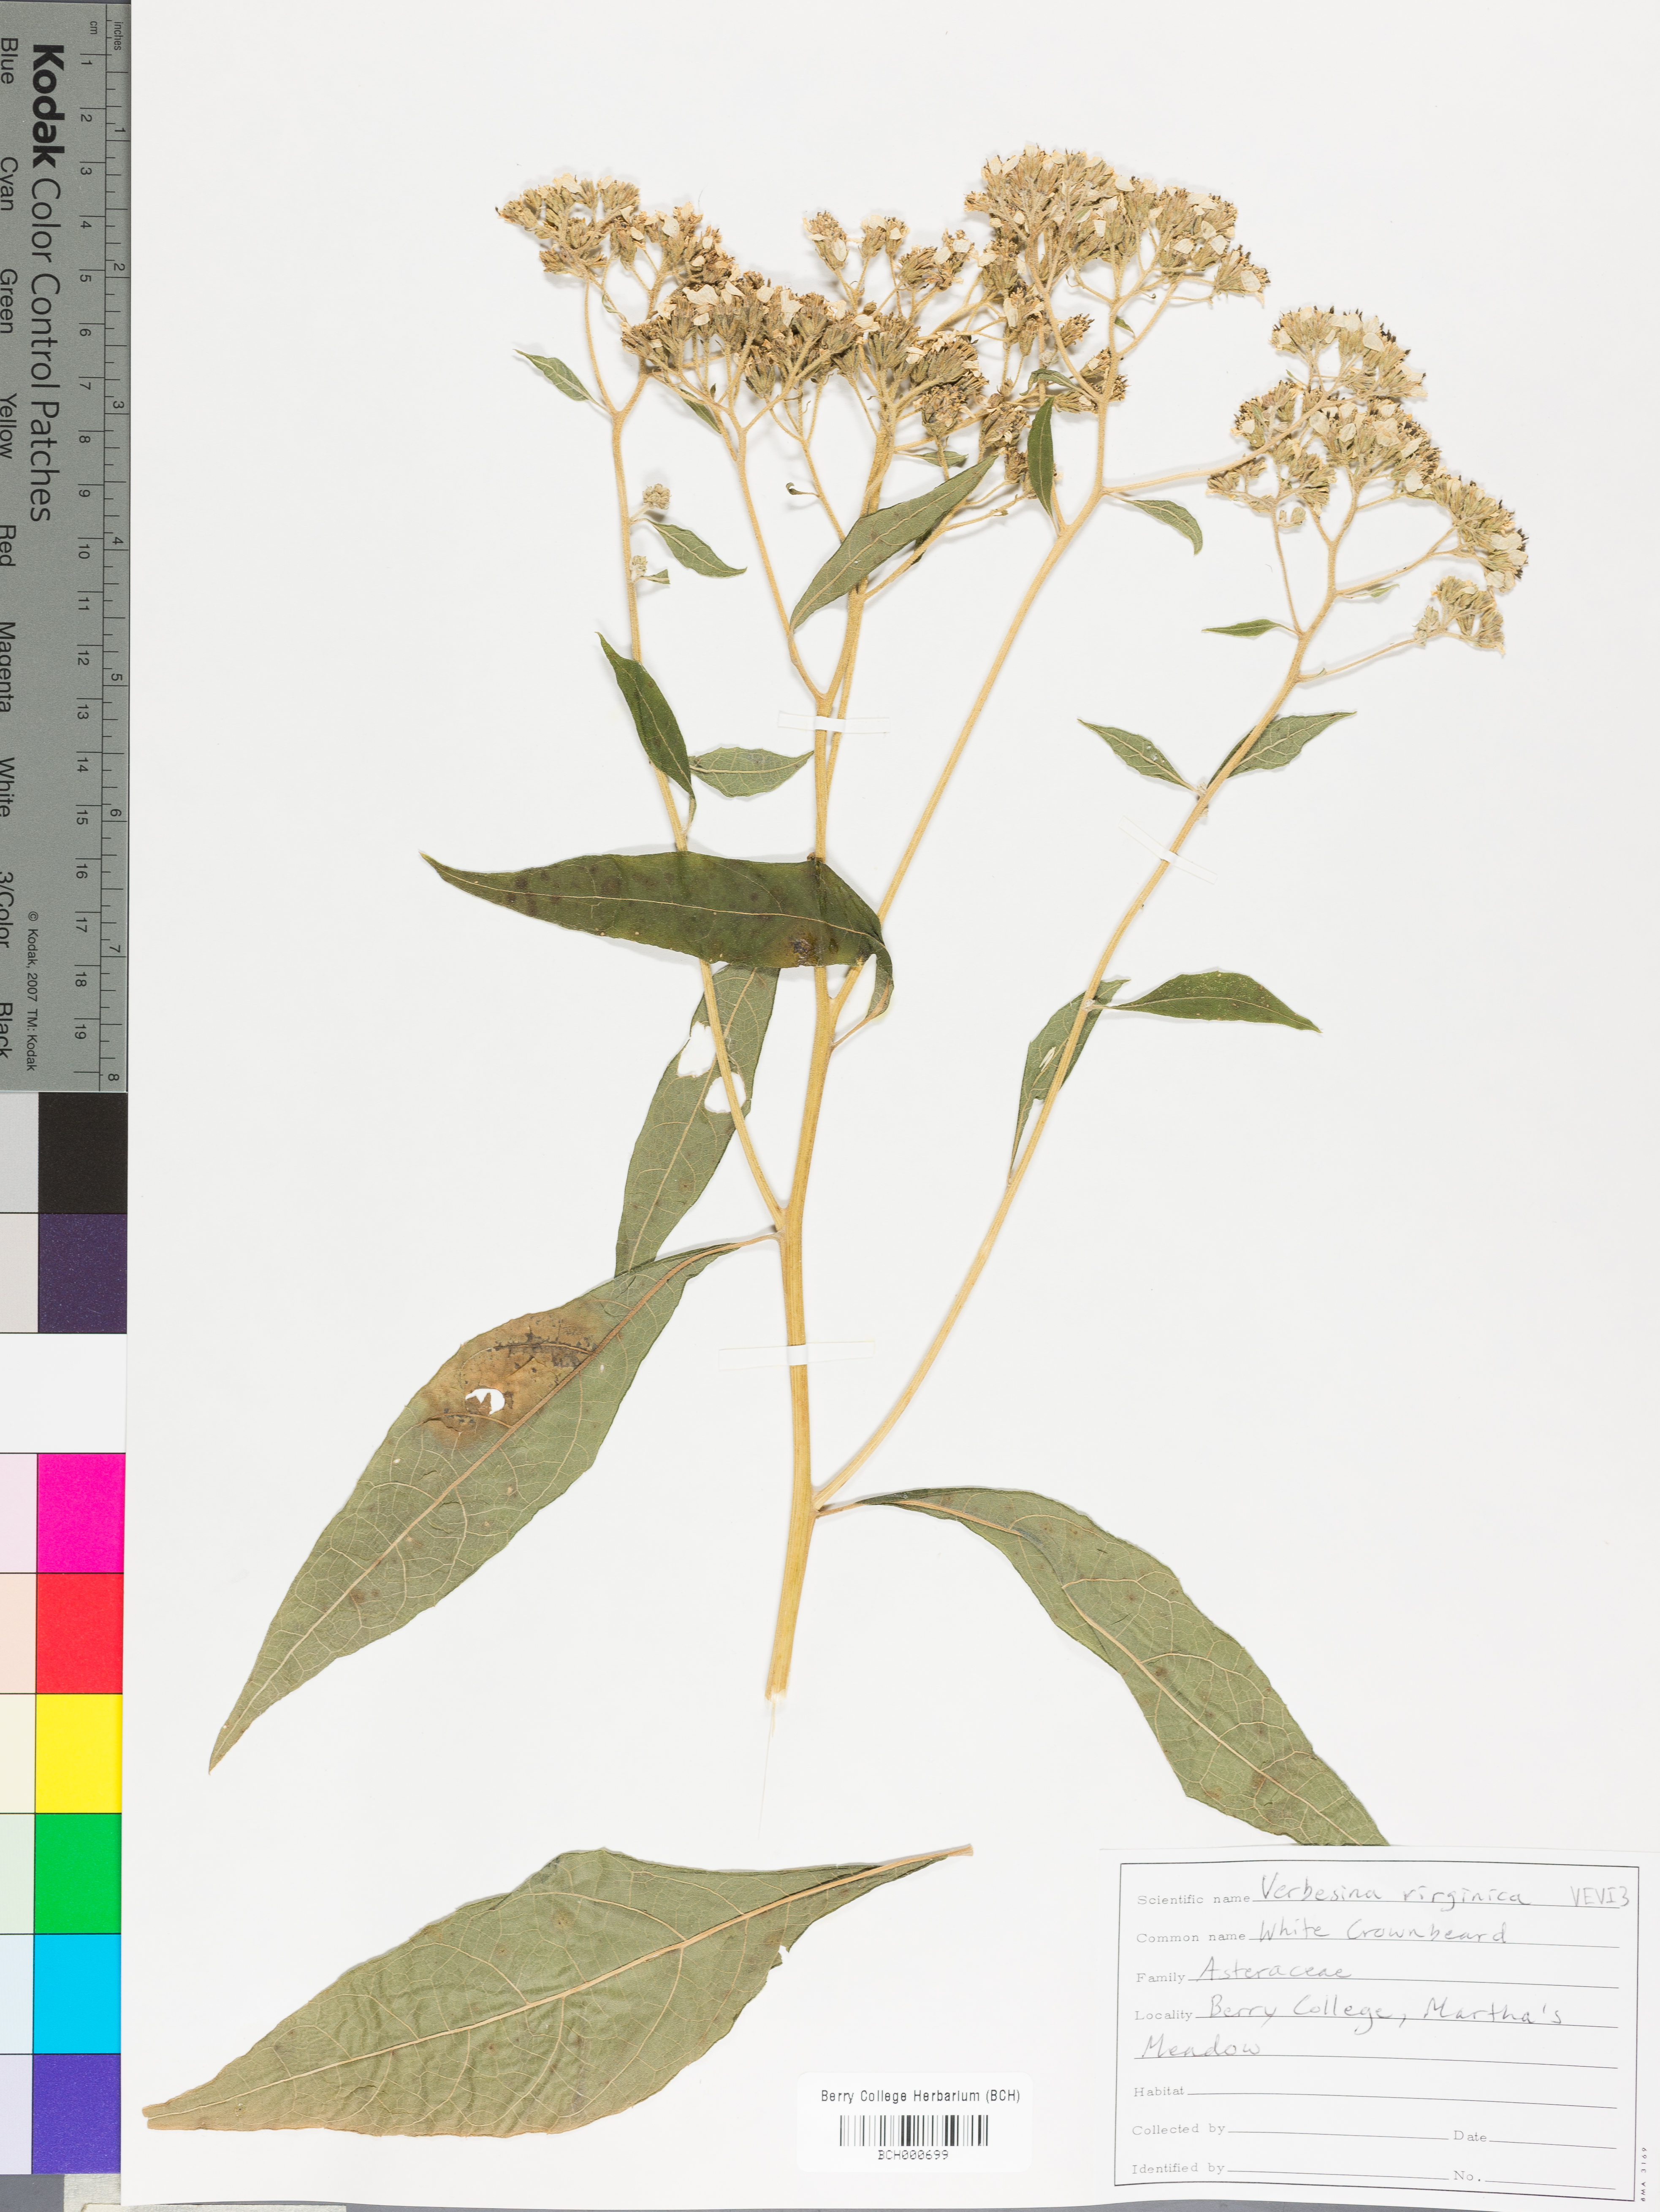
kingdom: Plantae
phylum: Tracheophyta
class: Magnoliopsida
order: Asterales
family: Asteraceae
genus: Verbesina
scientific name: Verbesina virginica
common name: Frostweed
